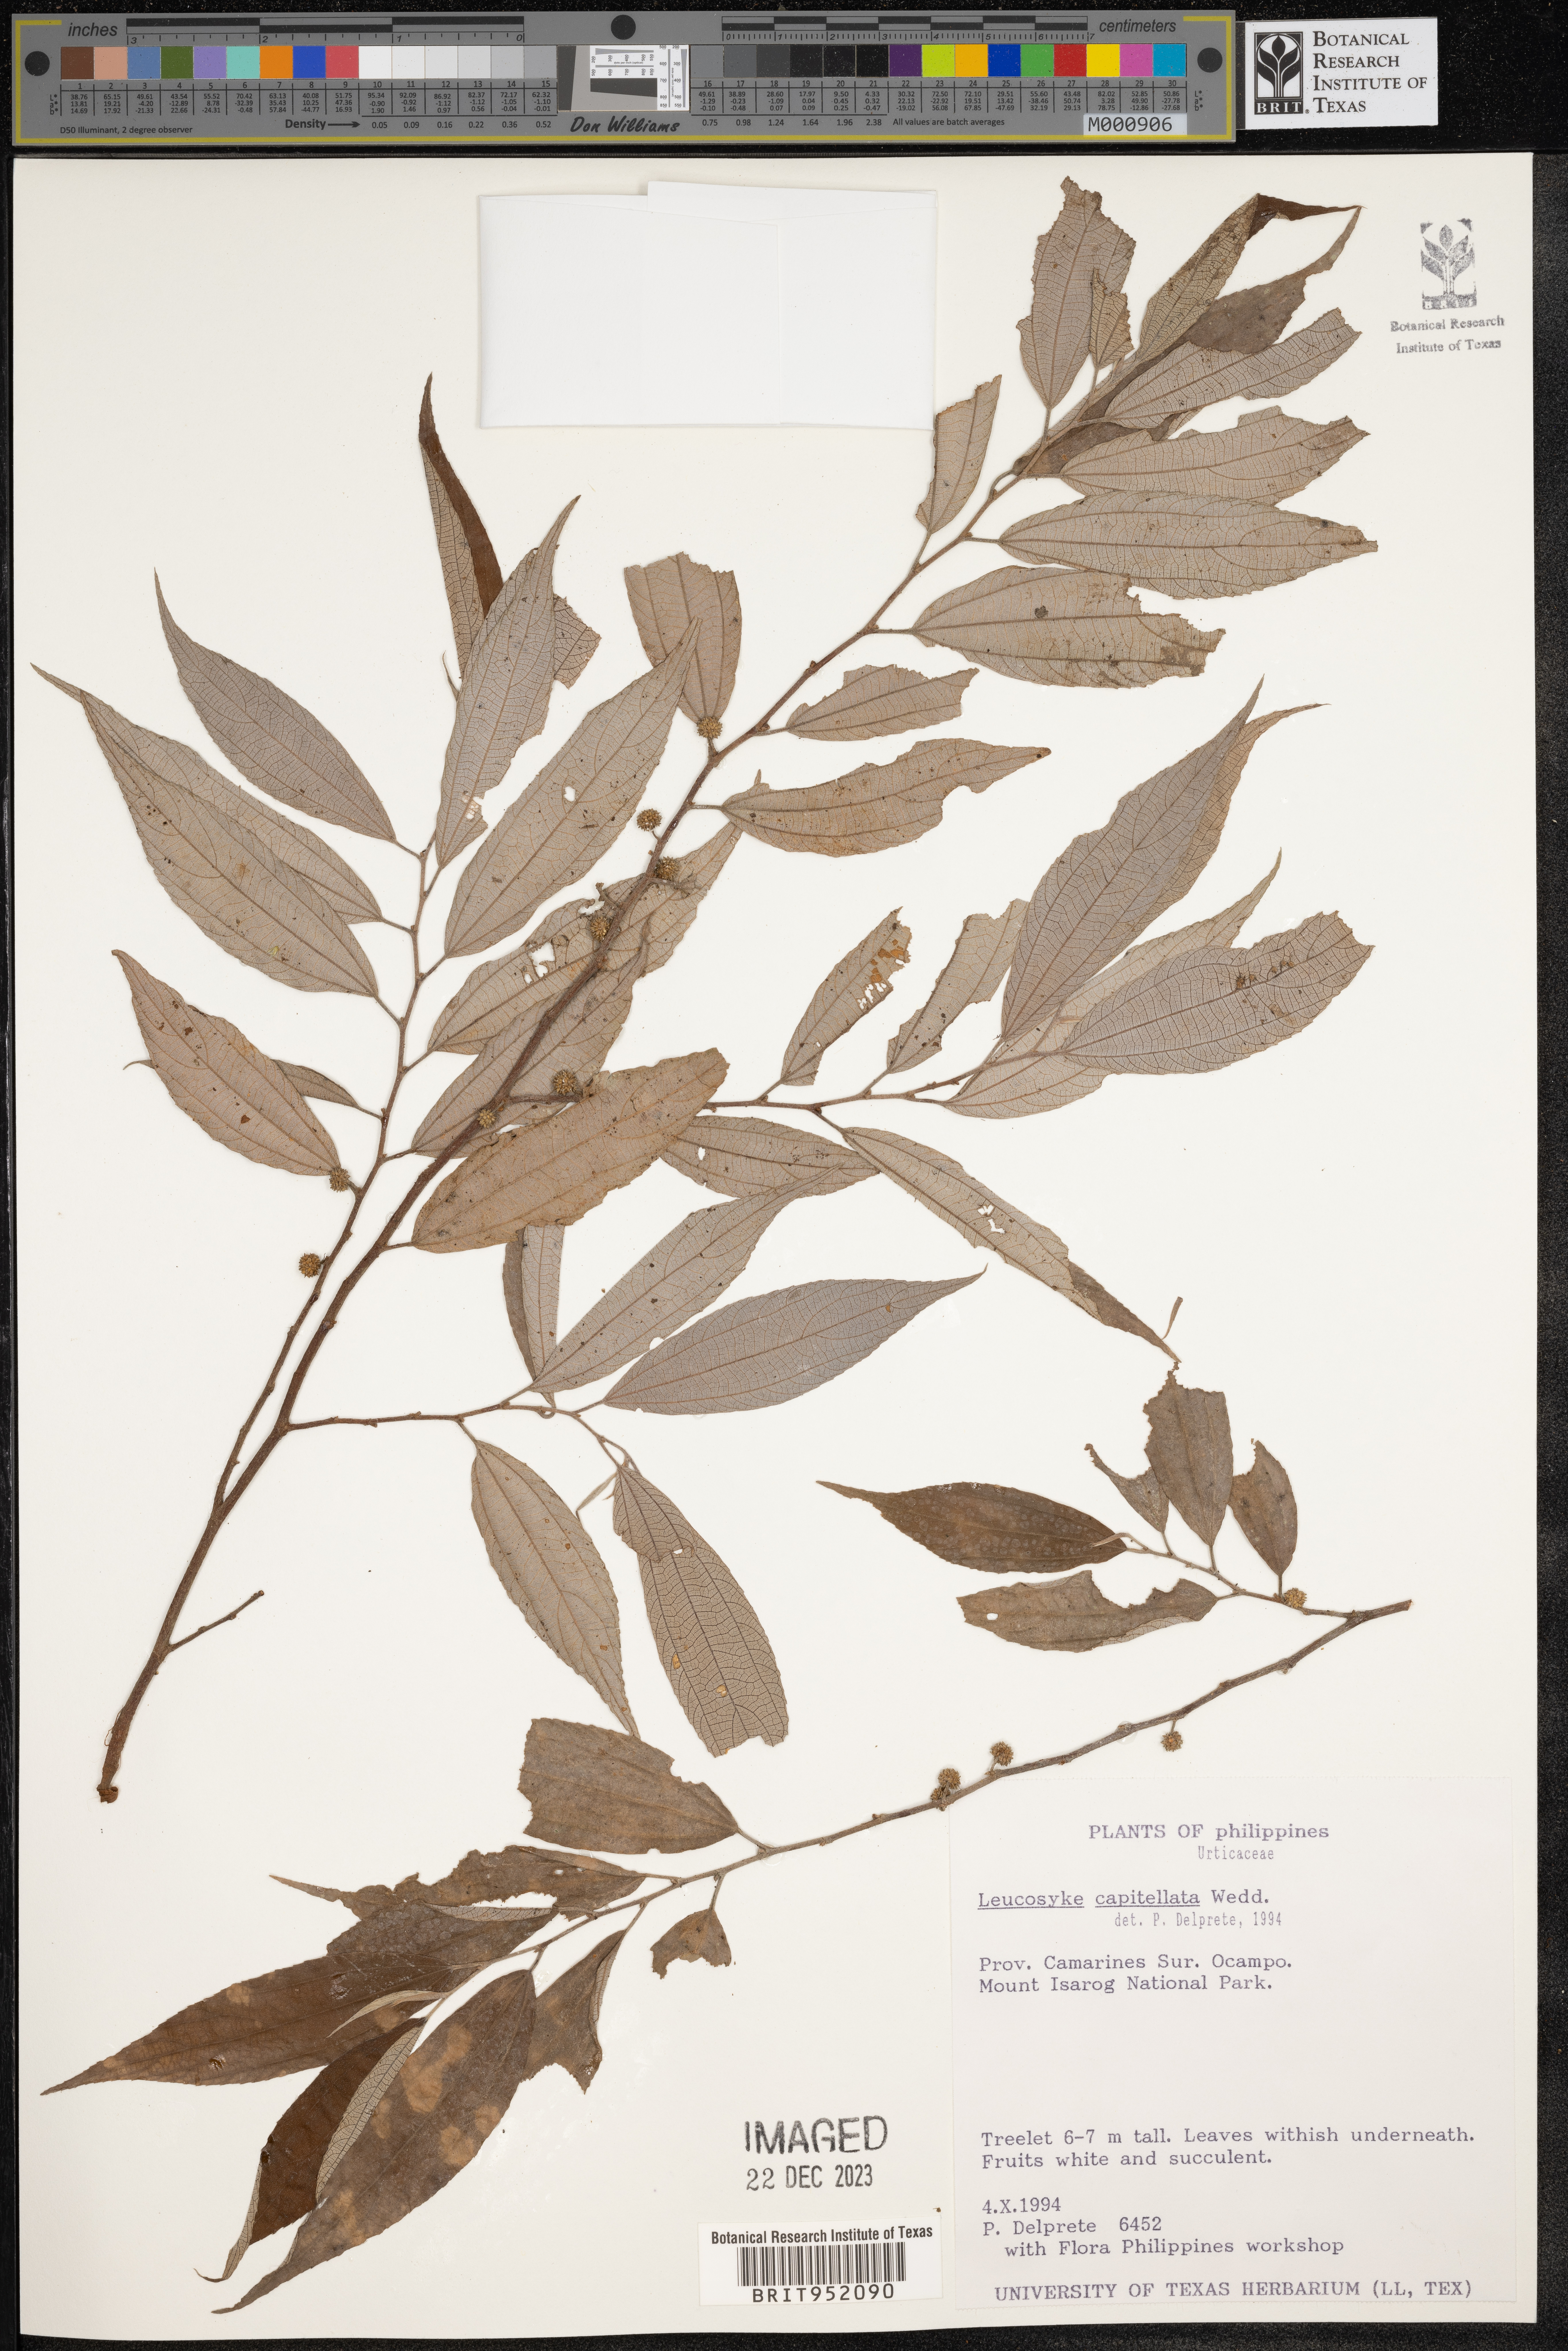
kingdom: Plantae
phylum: Tracheophyta
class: Magnoliopsida
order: Rosales
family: Urticaceae
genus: Leucosyke
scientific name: Leucosyke capitellata
